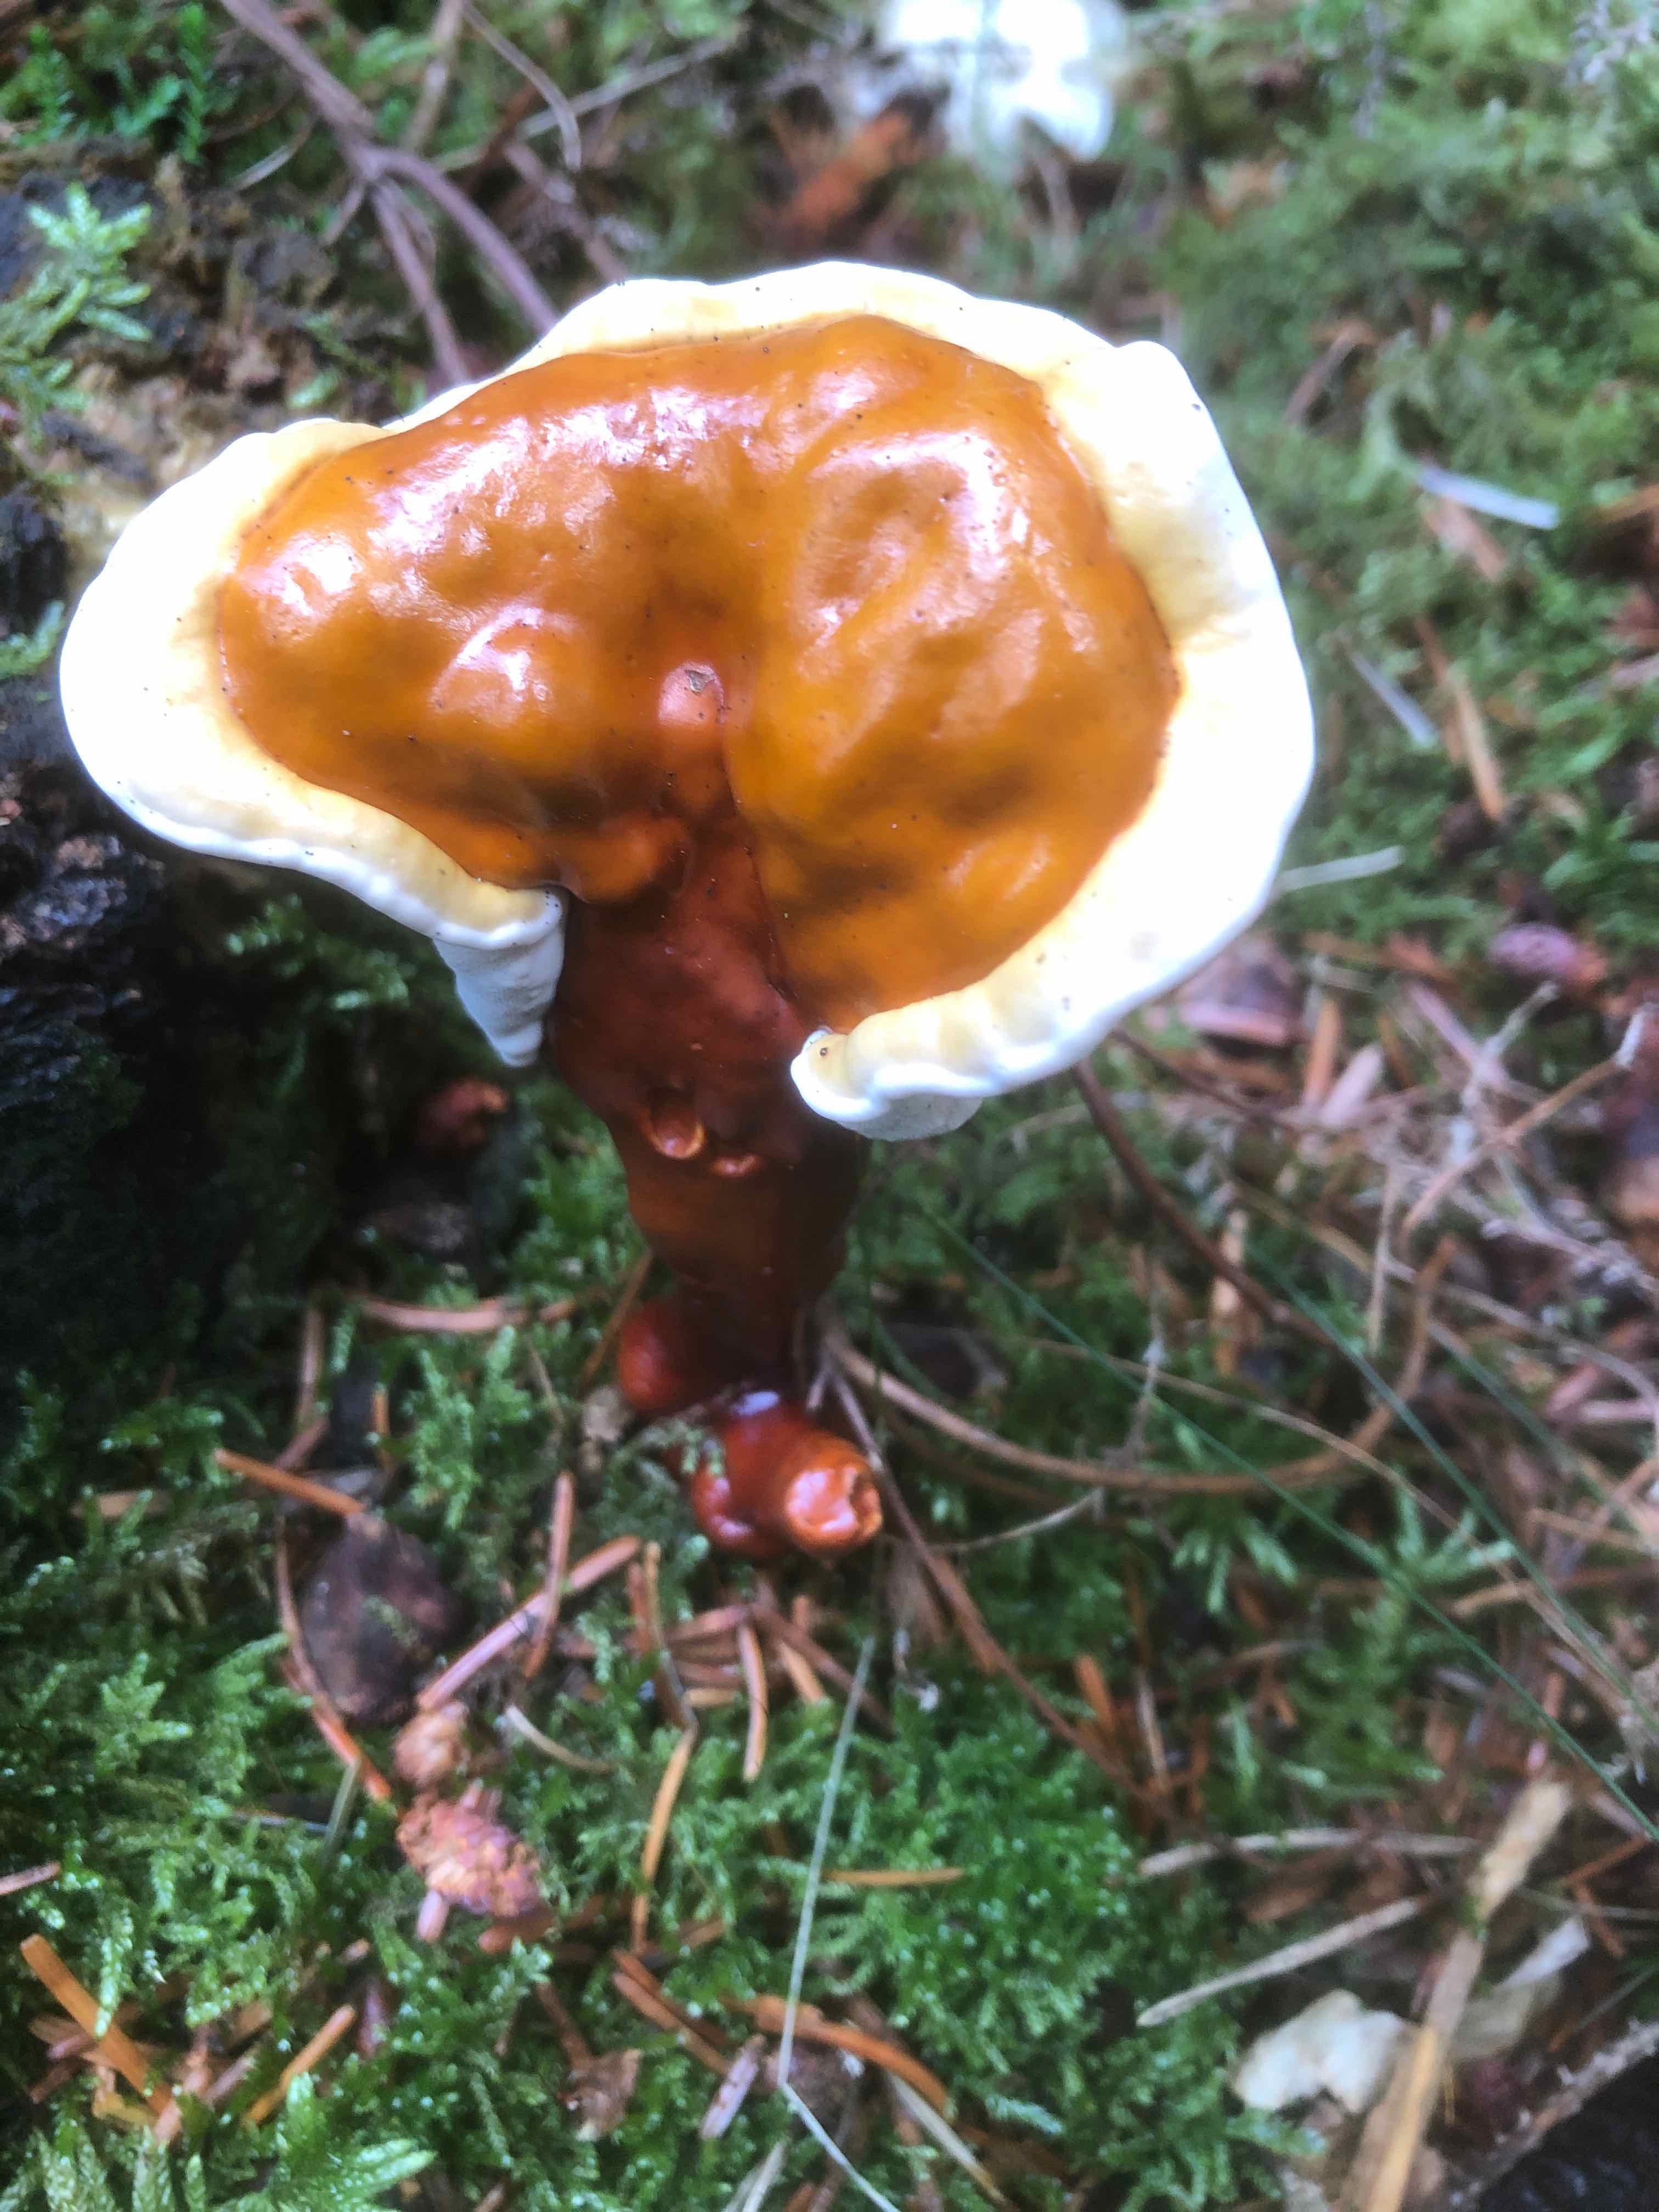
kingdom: Fungi
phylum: Basidiomycota
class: Agaricomycetes
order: Polyporales
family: Polyporaceae
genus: Ganoderma
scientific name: Ganoderma lucidum
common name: skinnende lakporesvamp
